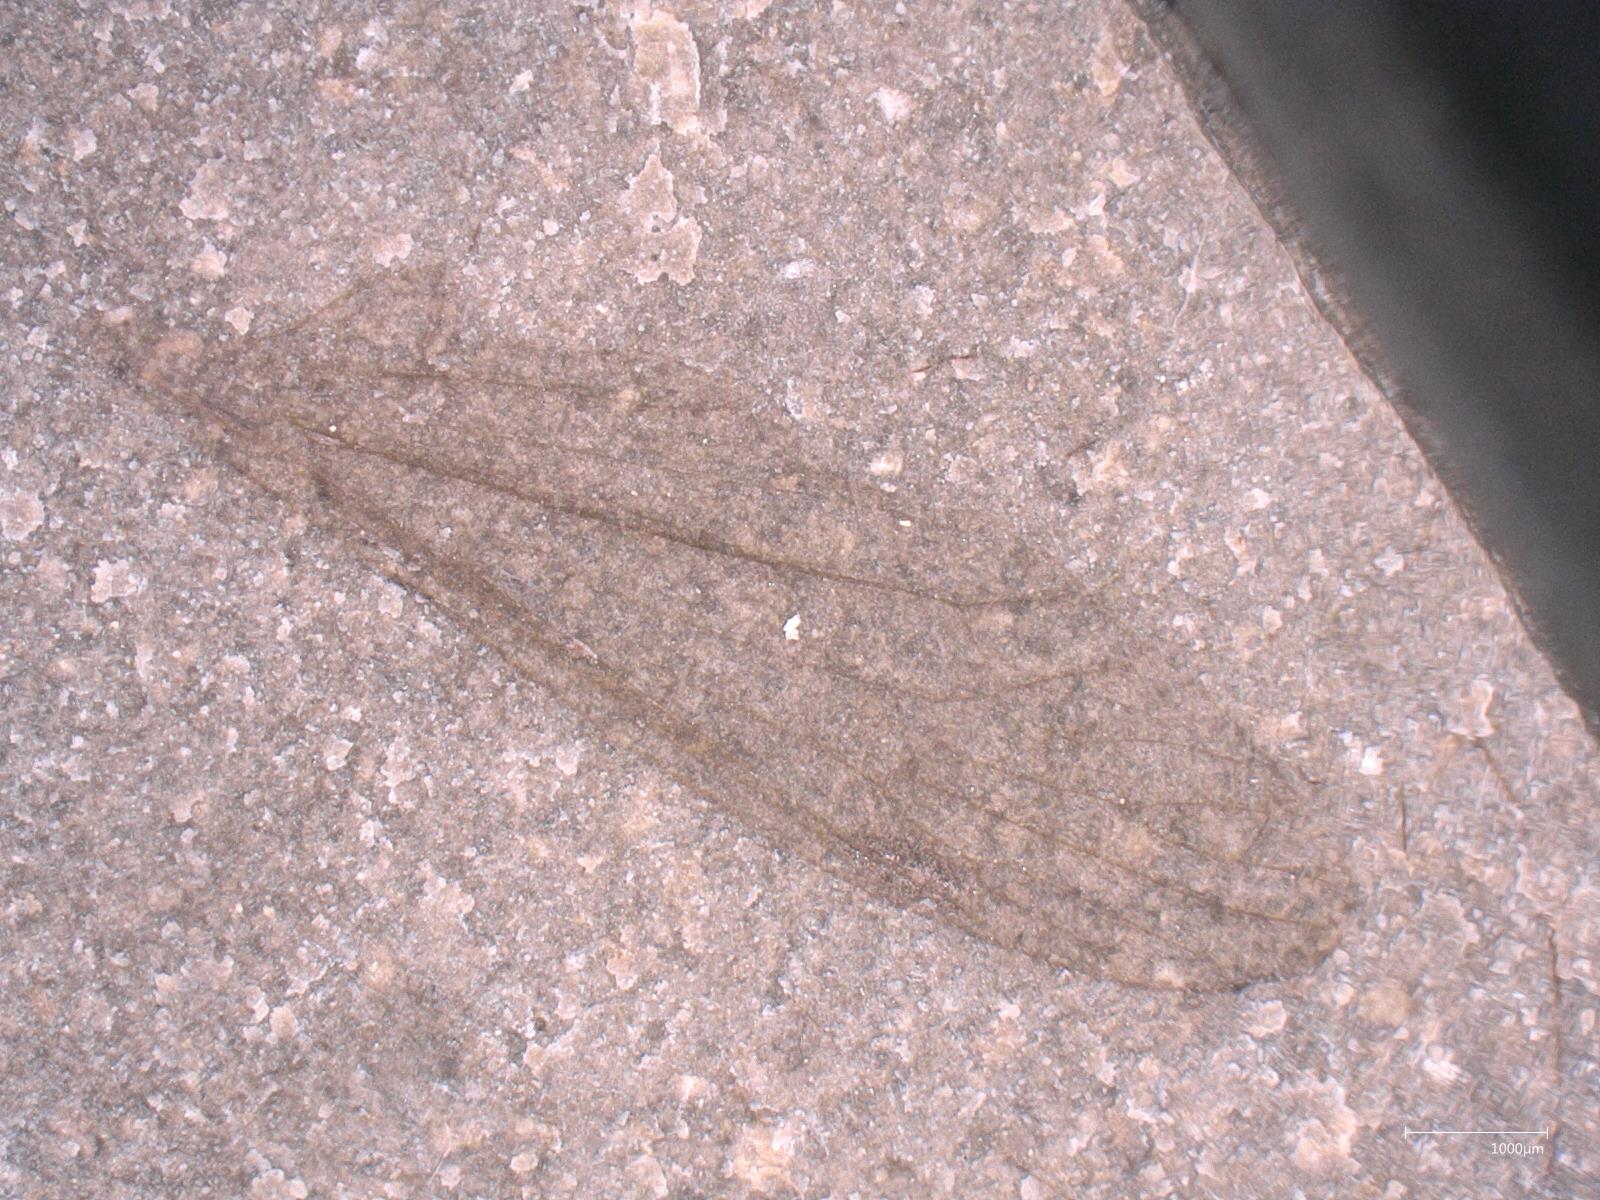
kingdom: Animalia
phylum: Arthropoda
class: Insecta
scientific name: Insecta
